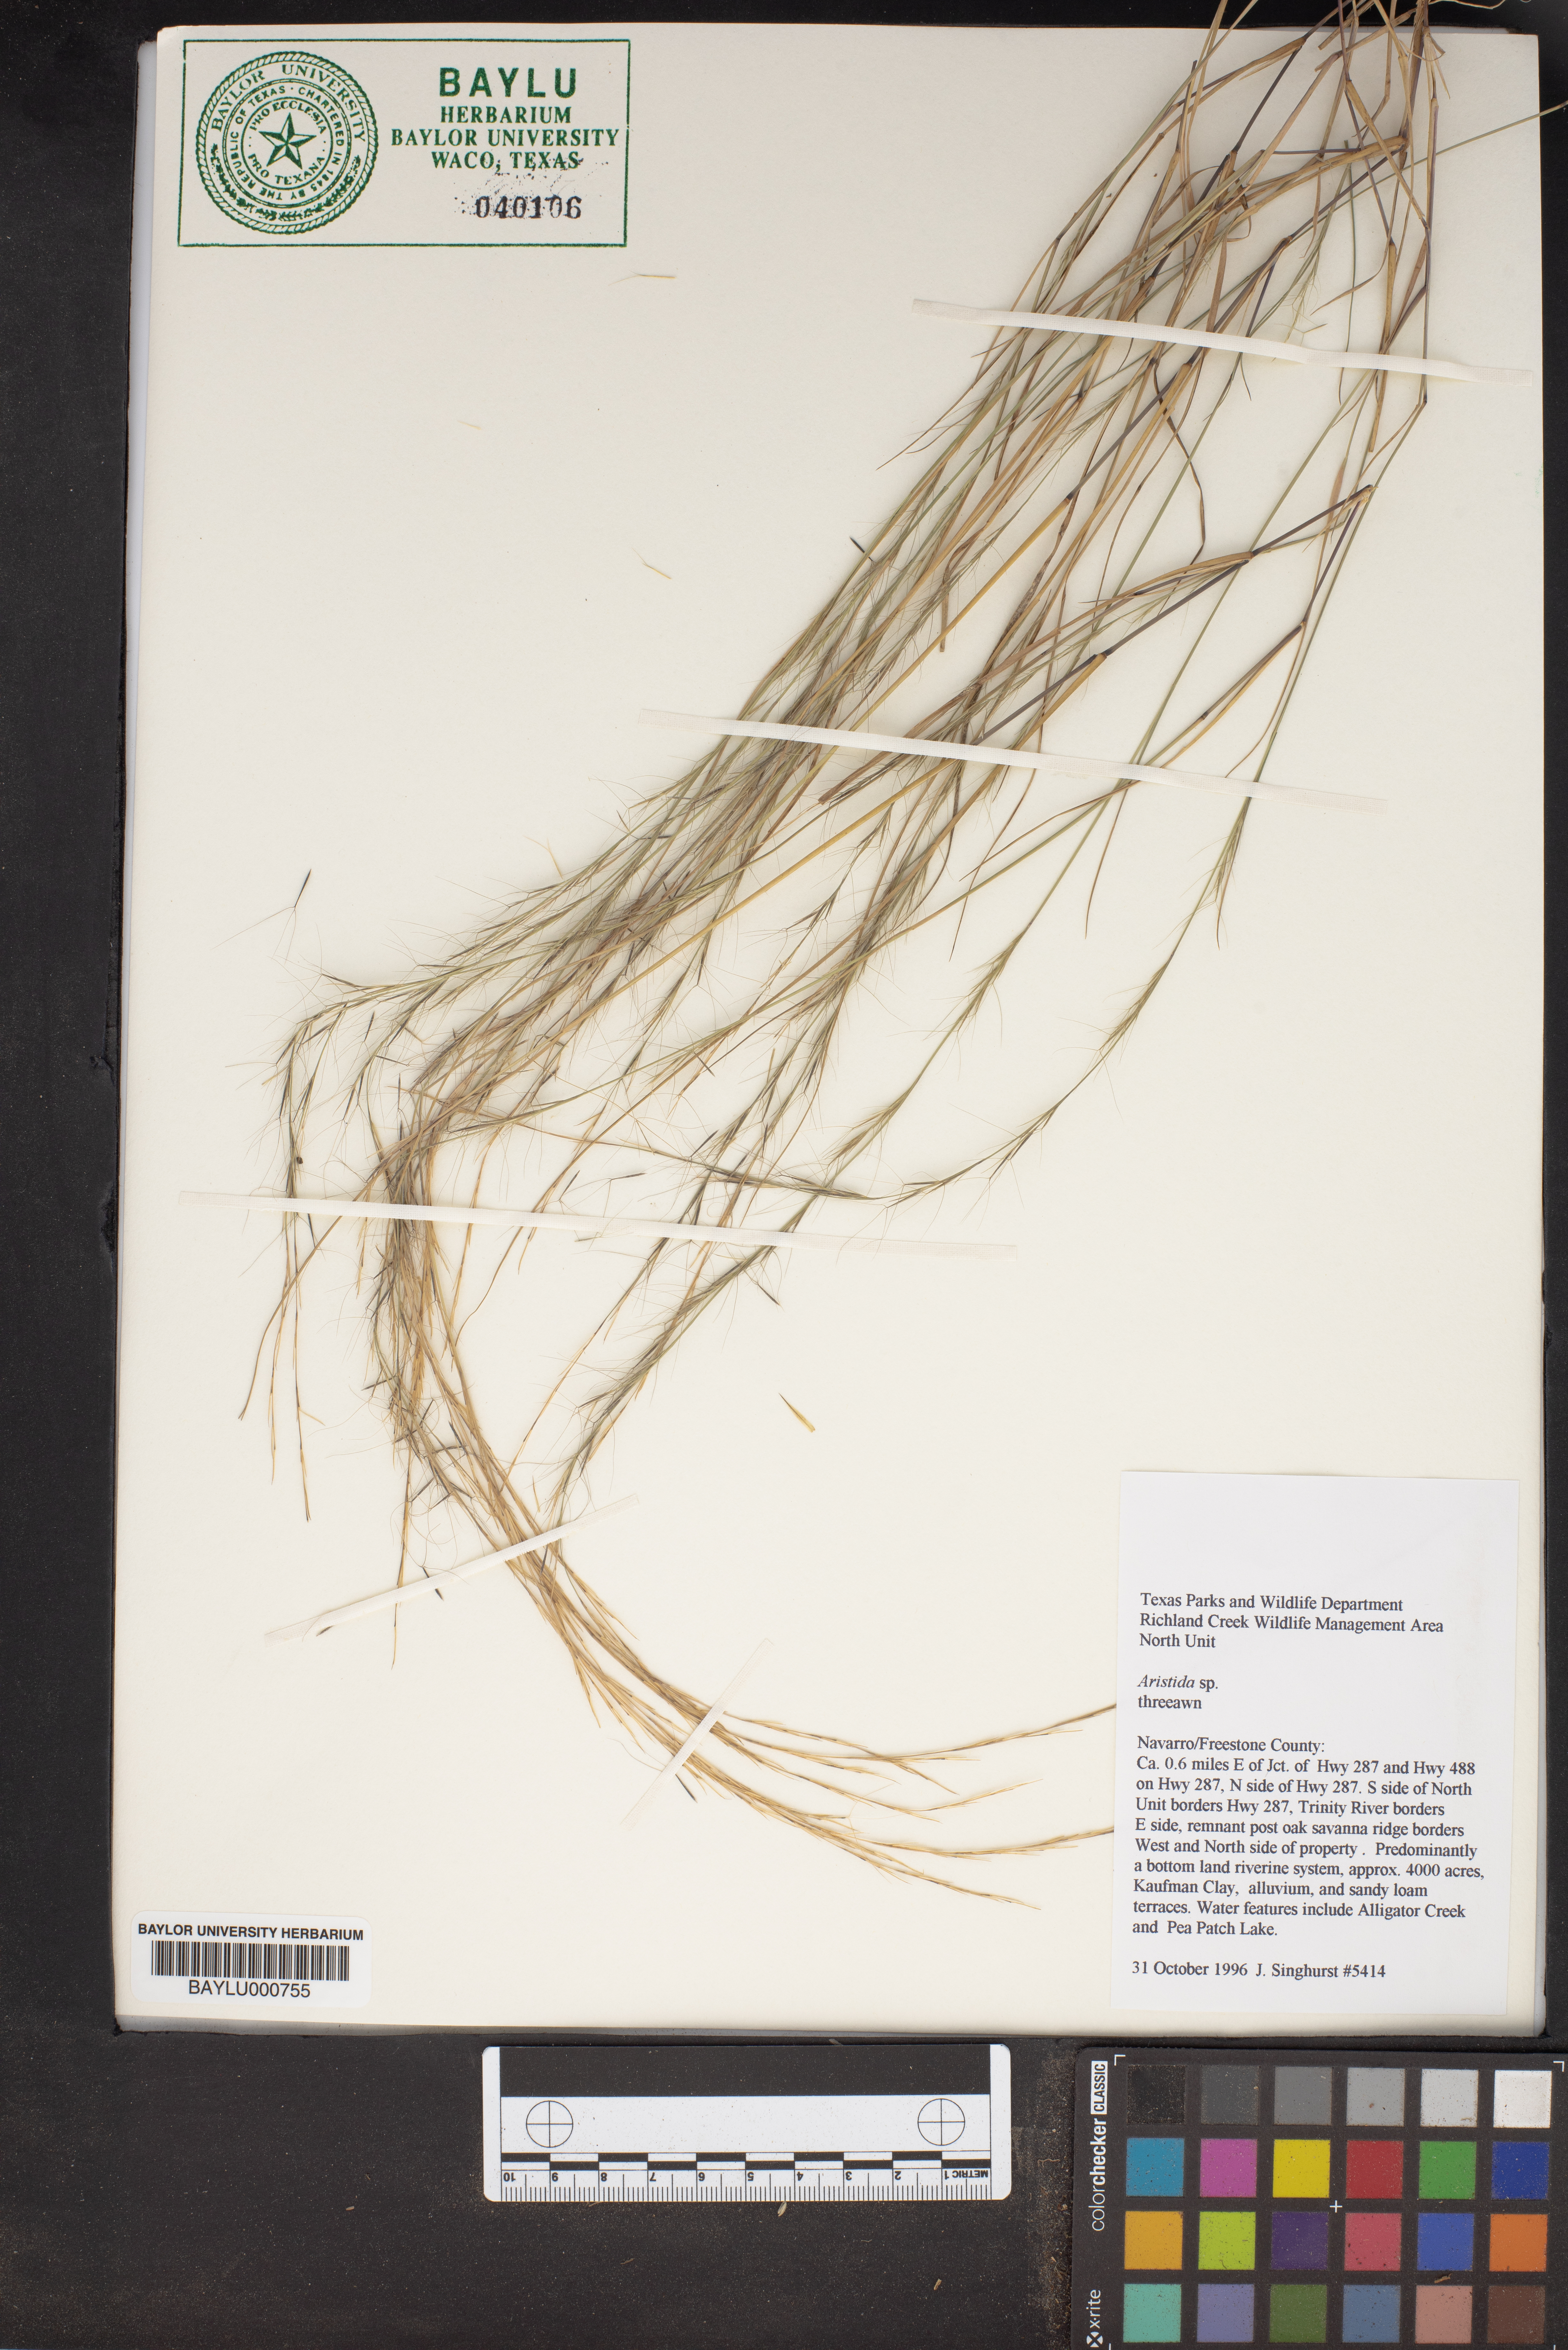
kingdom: Plantae
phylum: Tracheophyta
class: Liliopsida
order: Poales
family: Poaceae
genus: Aristida
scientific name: Aristida
